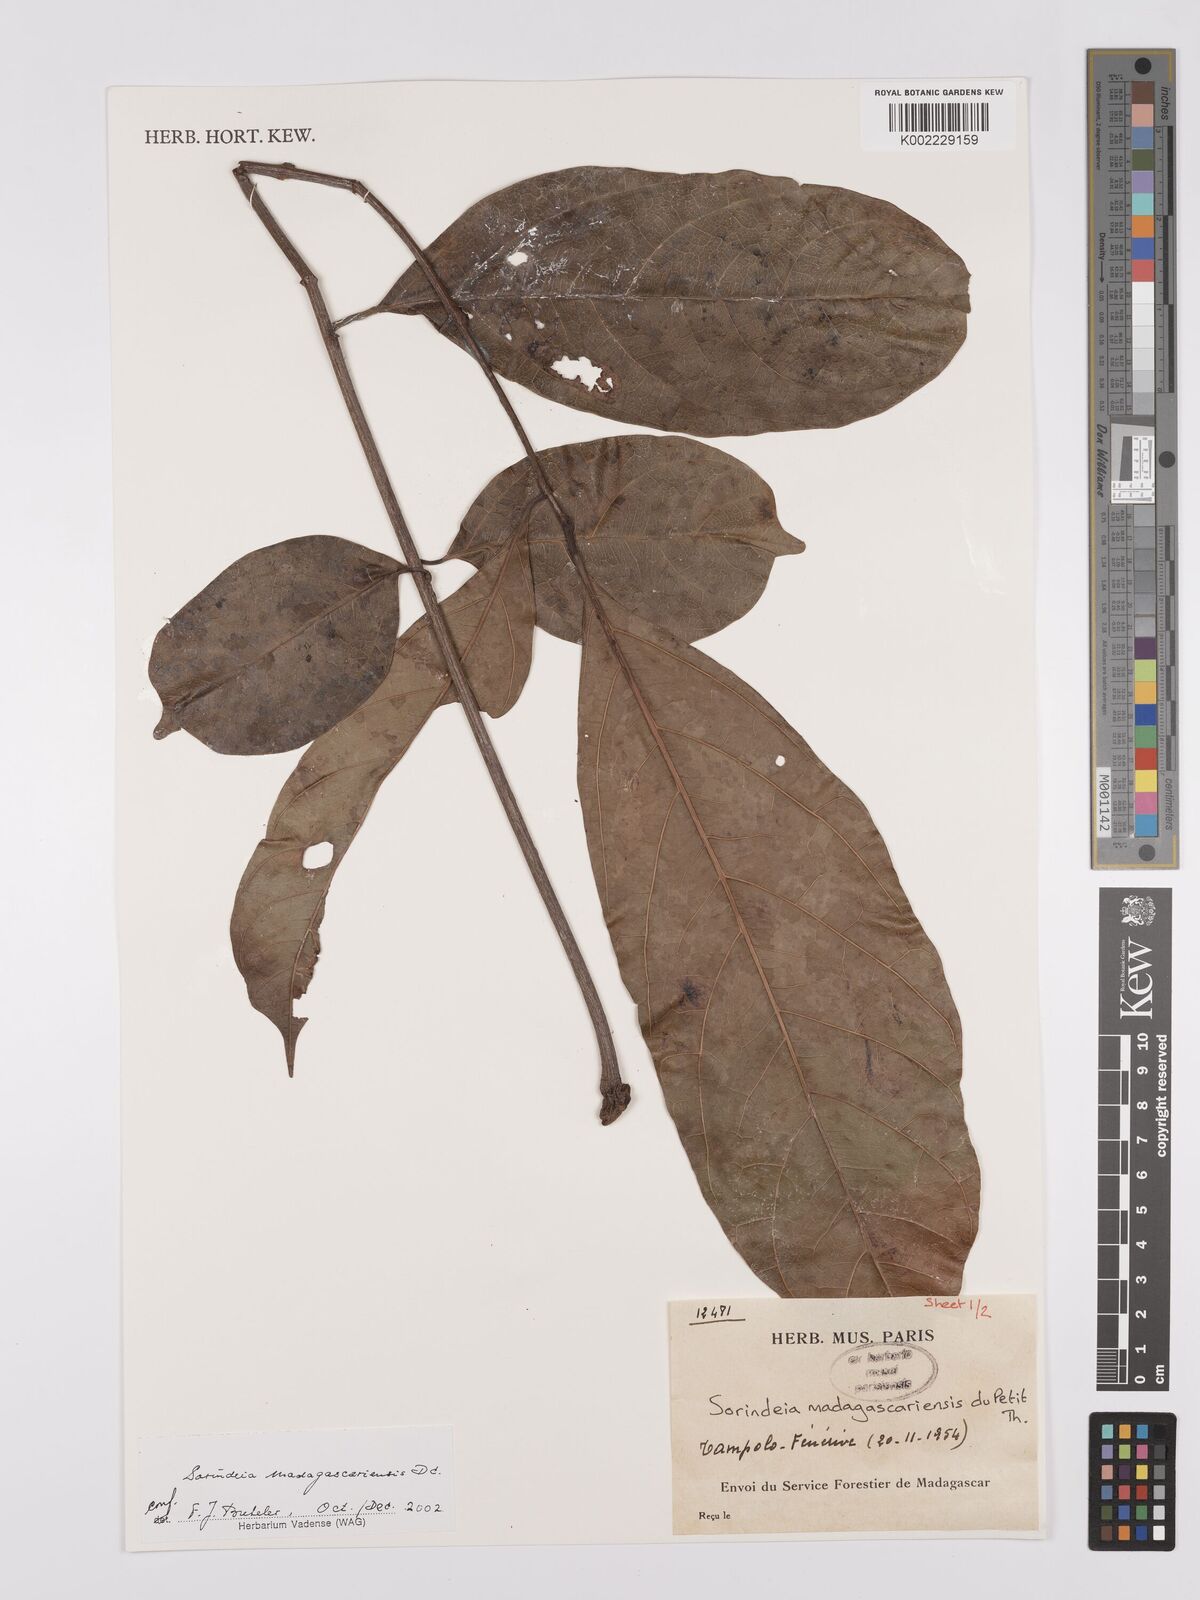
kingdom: Plantae
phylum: Tracheophyta
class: Magnoliopsida
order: Sapindales
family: Anacardiaceae
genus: Sorindeia
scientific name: Sorindeia madagascariensis
